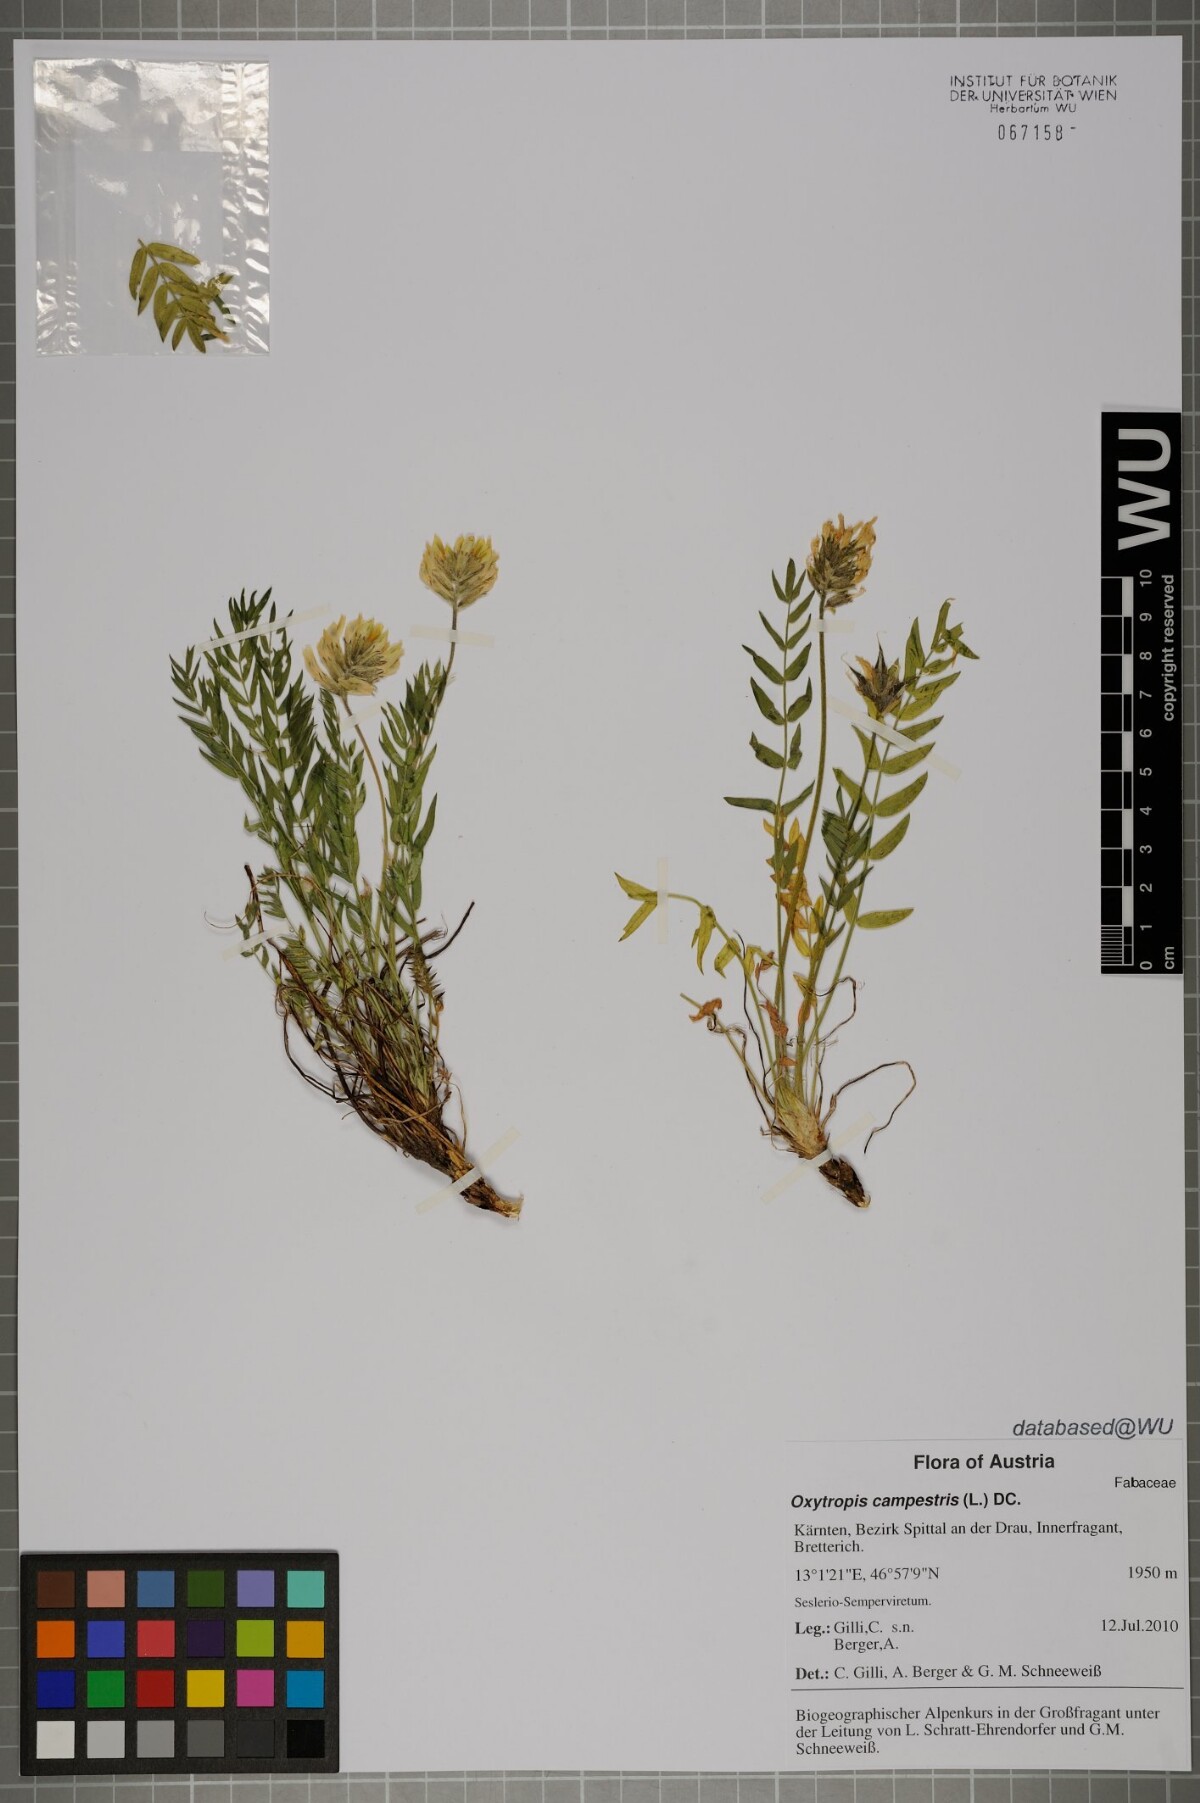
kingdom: Plantae
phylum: Tracheophyta
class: Magnoliopsida
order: Fabales
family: Fabaceae
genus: Oxytropis
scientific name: Oxytropis campestris
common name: Field locoweed
